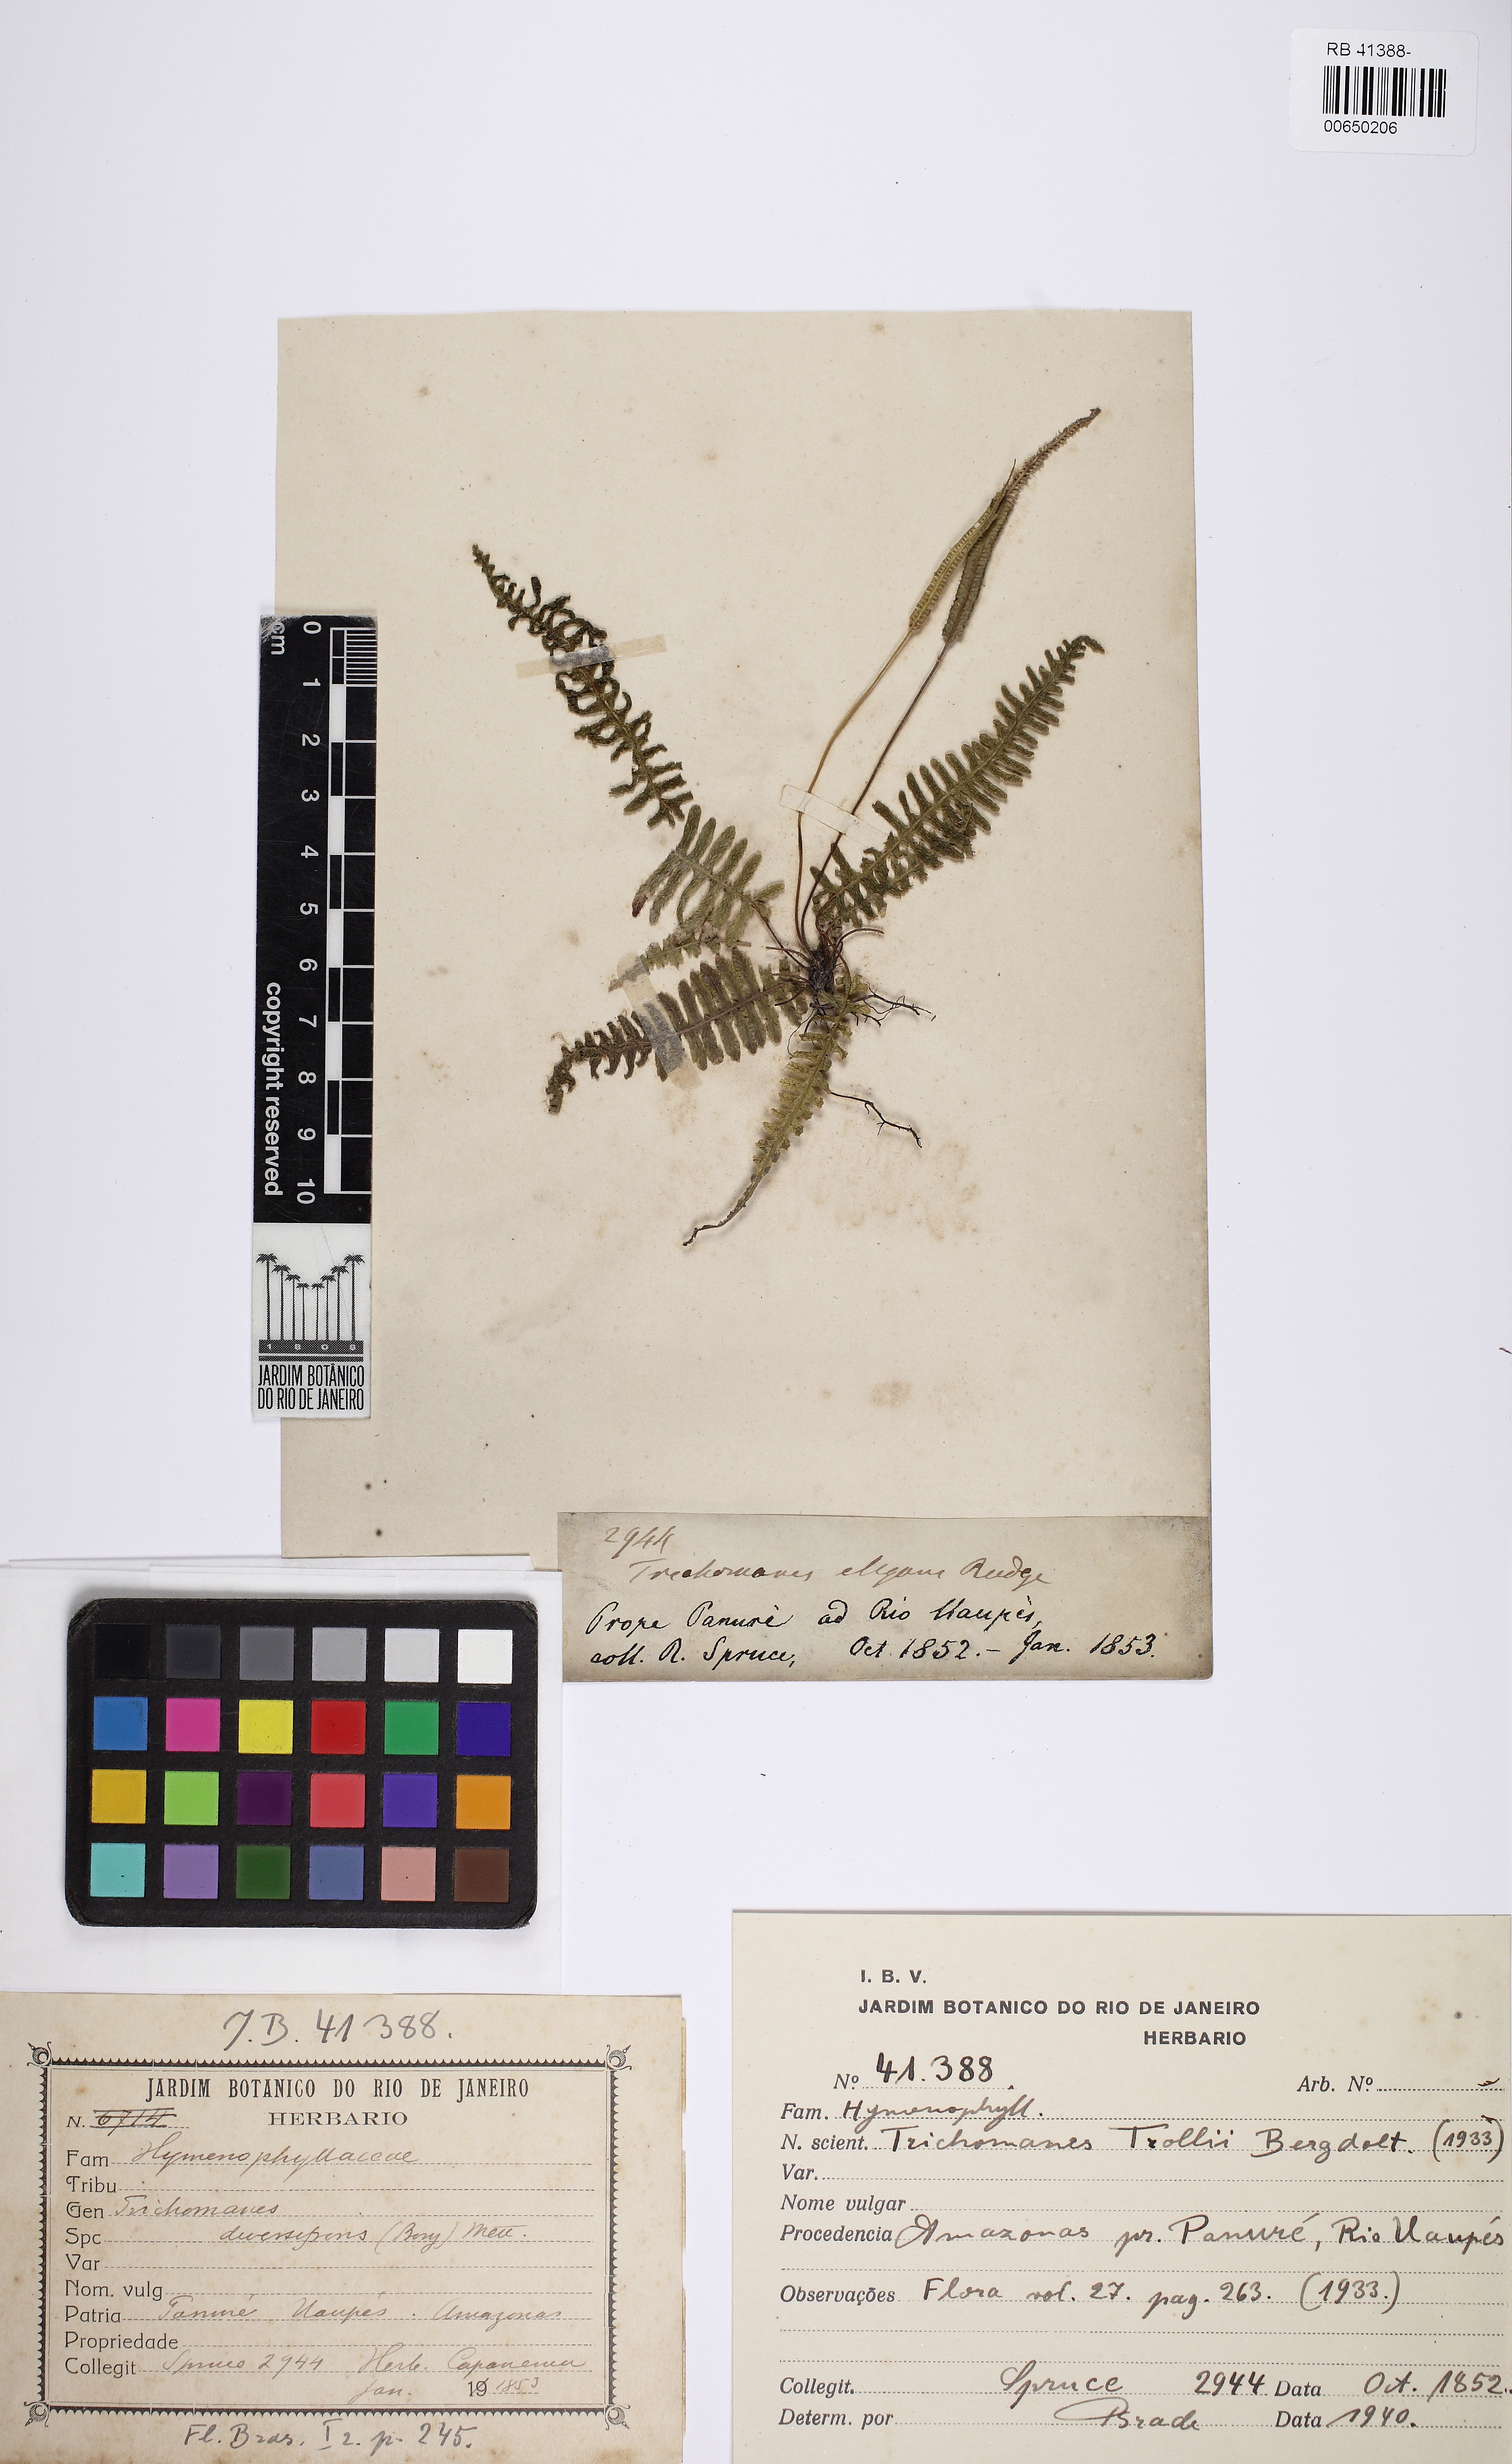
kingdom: Plantae
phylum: Tracheophyta
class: Polypodiopsida
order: Hymenophyllales
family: Hymenophyllaceae
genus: Trichomanes
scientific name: Trichomanes trollii
